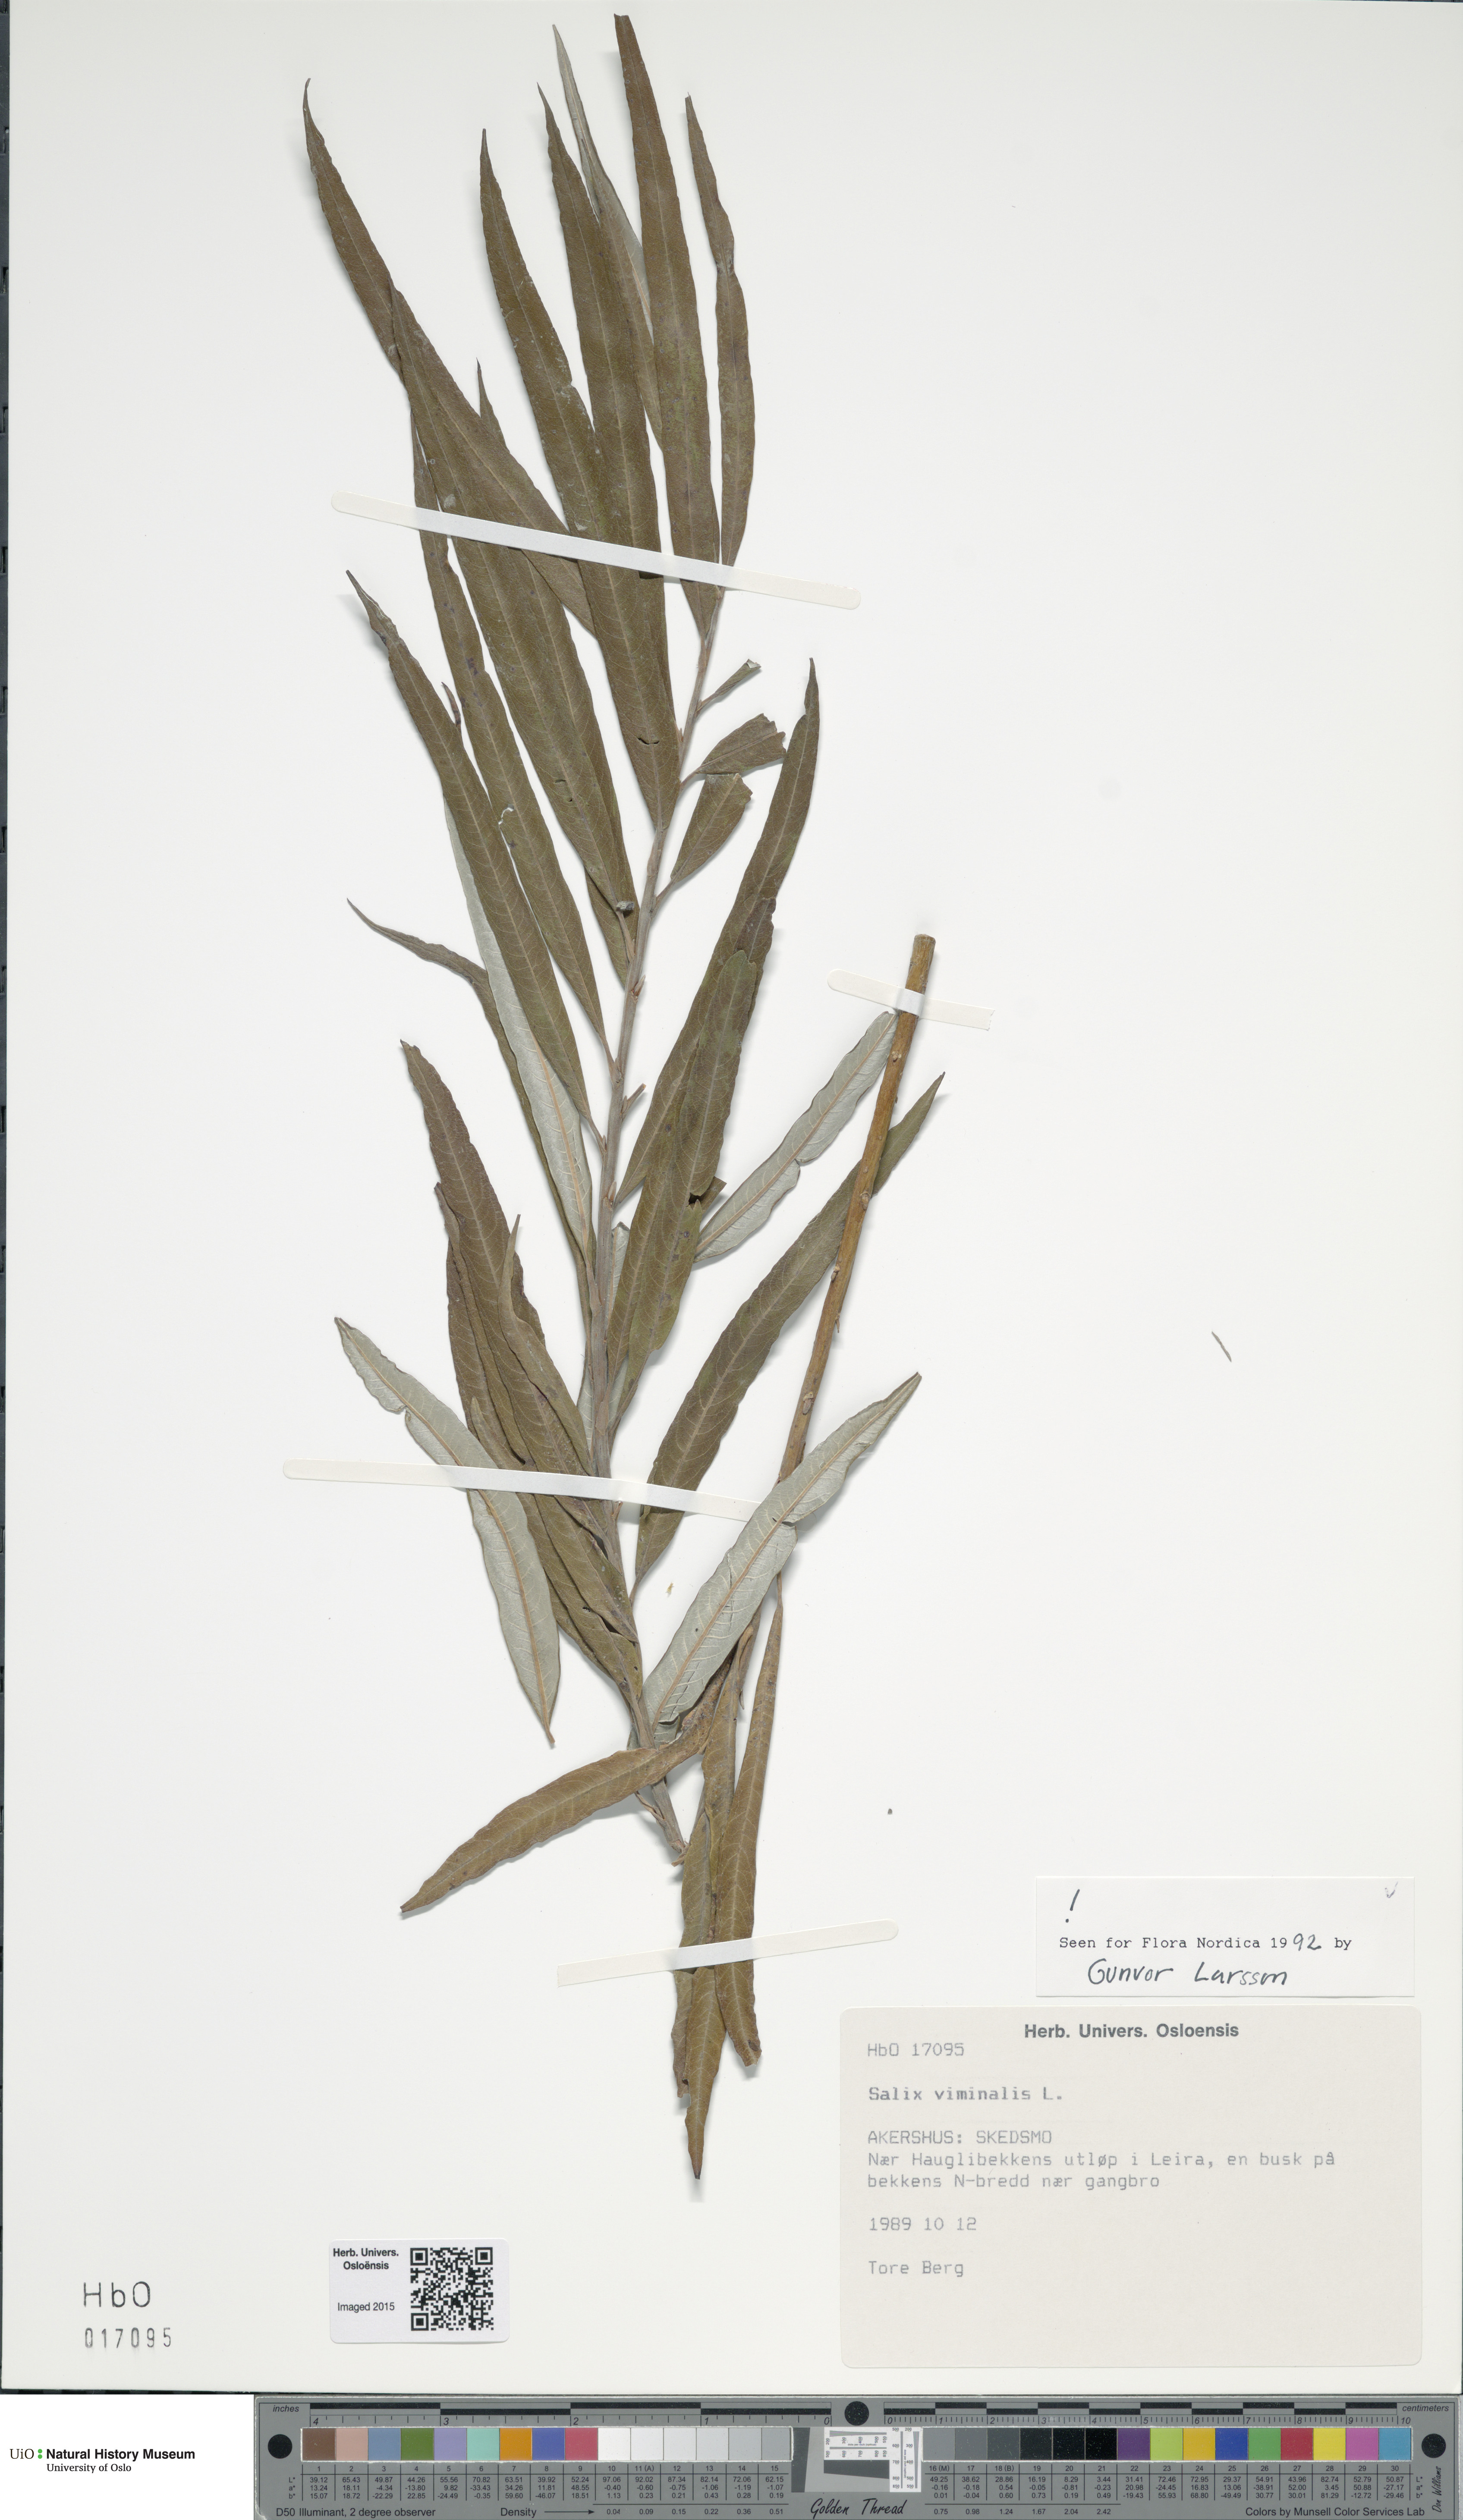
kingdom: Plantae
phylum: Tracheophyta
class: Magnoliopsida
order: Malpighiales
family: Salicaceae
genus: Salix
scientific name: Salix viminalis
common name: Osier
